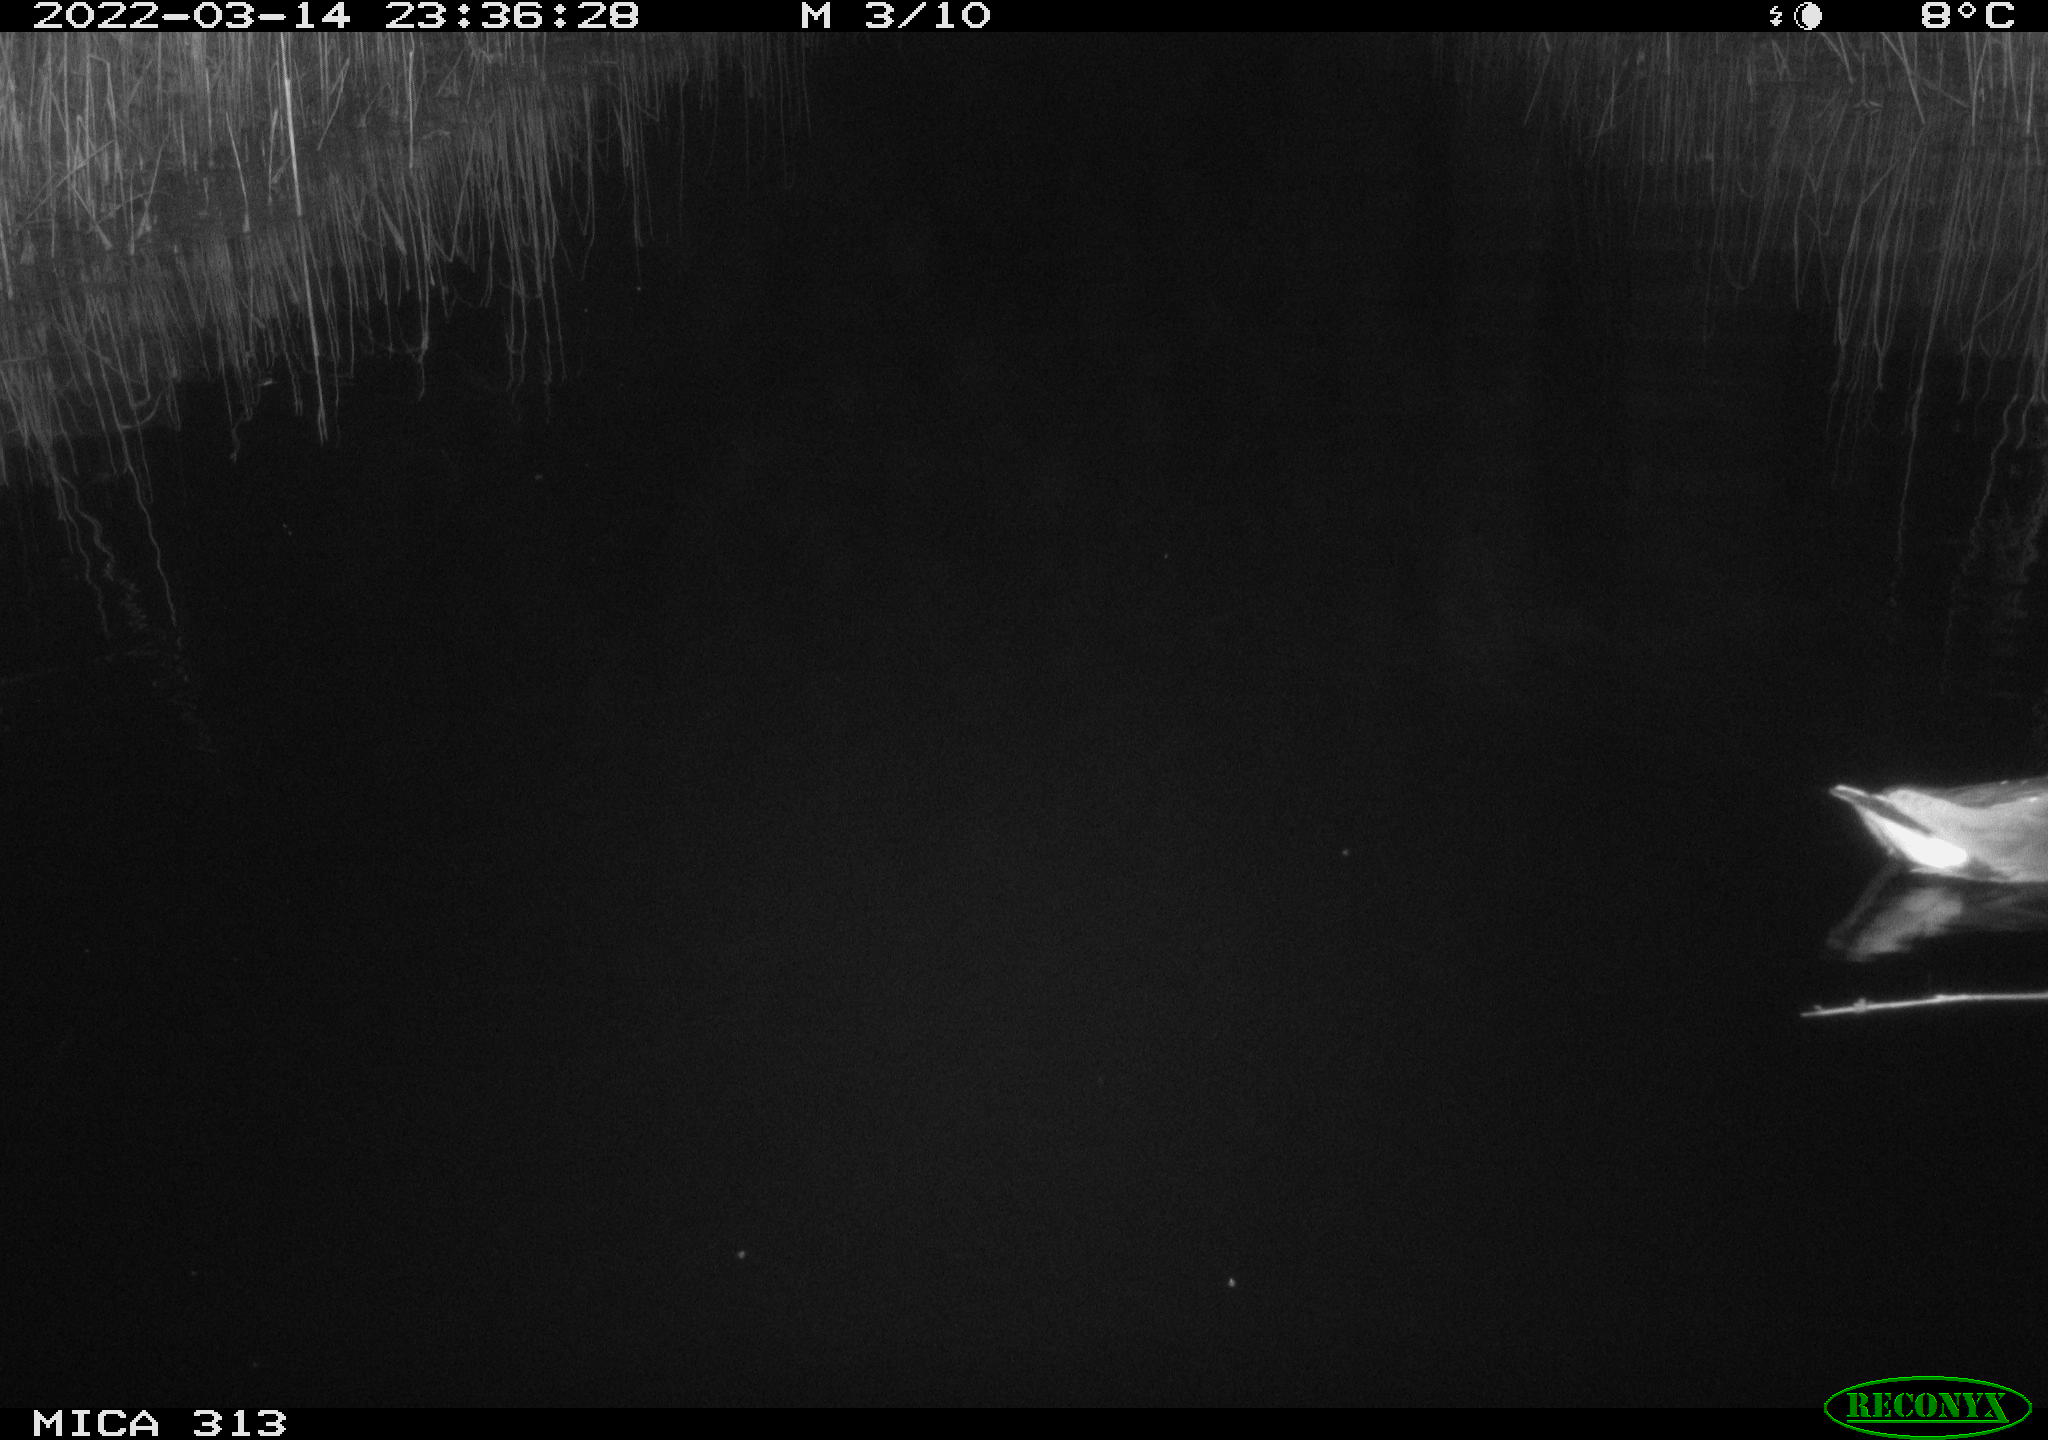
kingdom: Animalia
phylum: Chordata
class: Aves
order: Gruiformes
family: Rallidae
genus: Gallinula
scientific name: Gallinula chloropus
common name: Common moorhen
